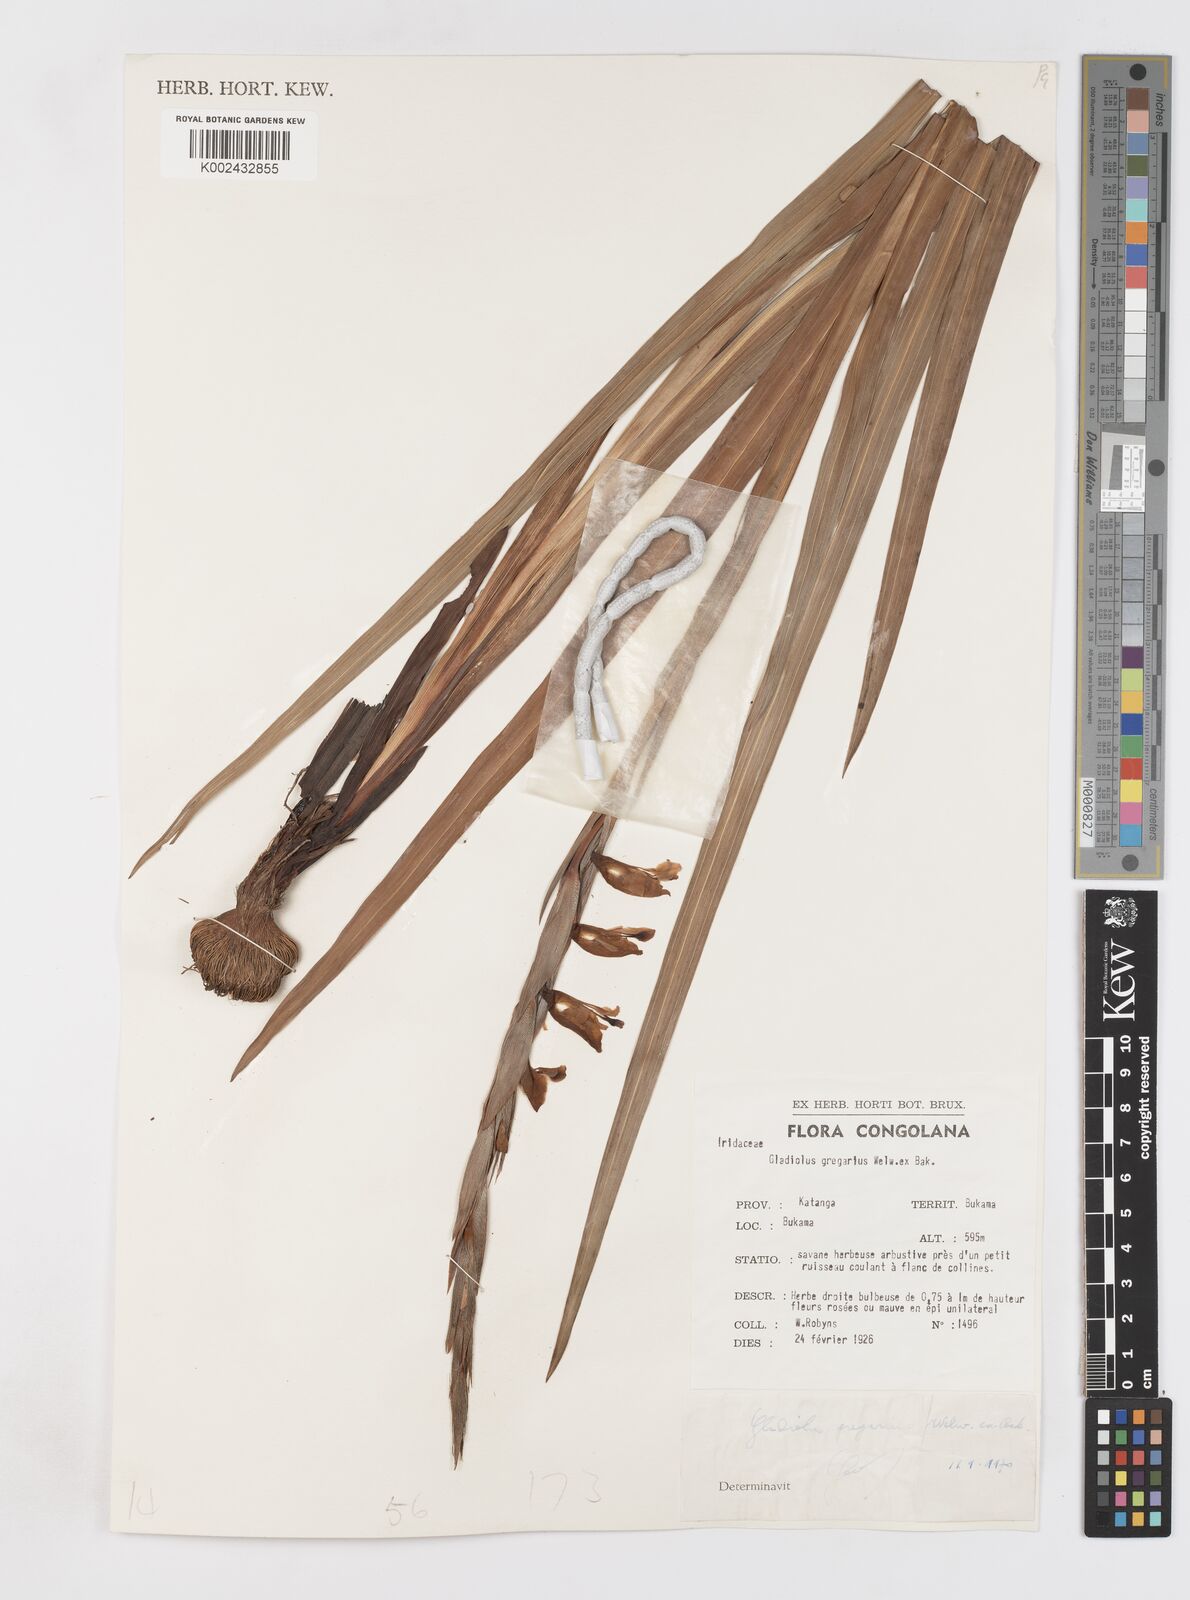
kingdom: Plantae
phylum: Tracheophyta
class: Liliopsida
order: Asparagales
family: Iridaceae
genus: Gladiolus
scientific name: Gladiolus gregarius
